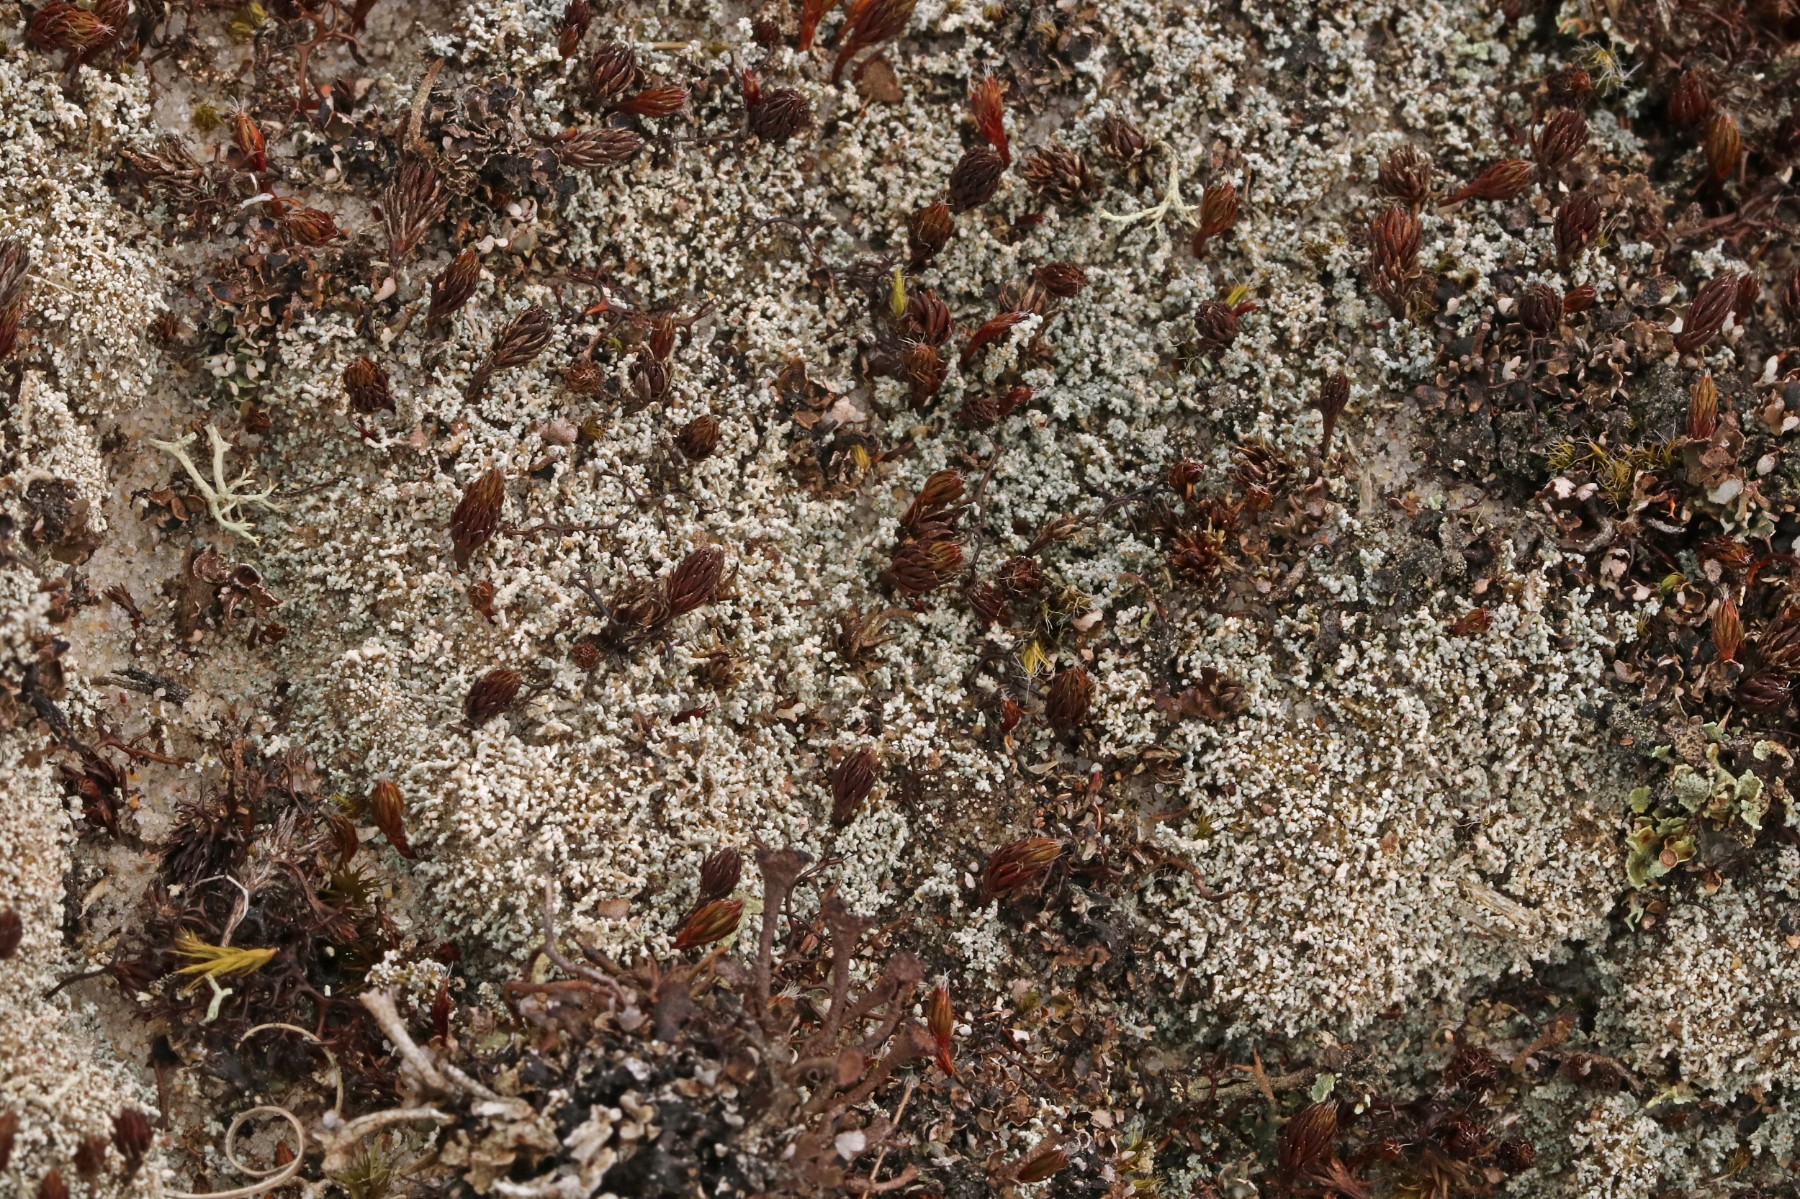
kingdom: Fungi
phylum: Ascomycota
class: Lecanoromycetes
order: Lecanorales
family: Stereocaulaceae
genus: Stereocaulon
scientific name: Stereocaulon condensatum
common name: lav korallav
